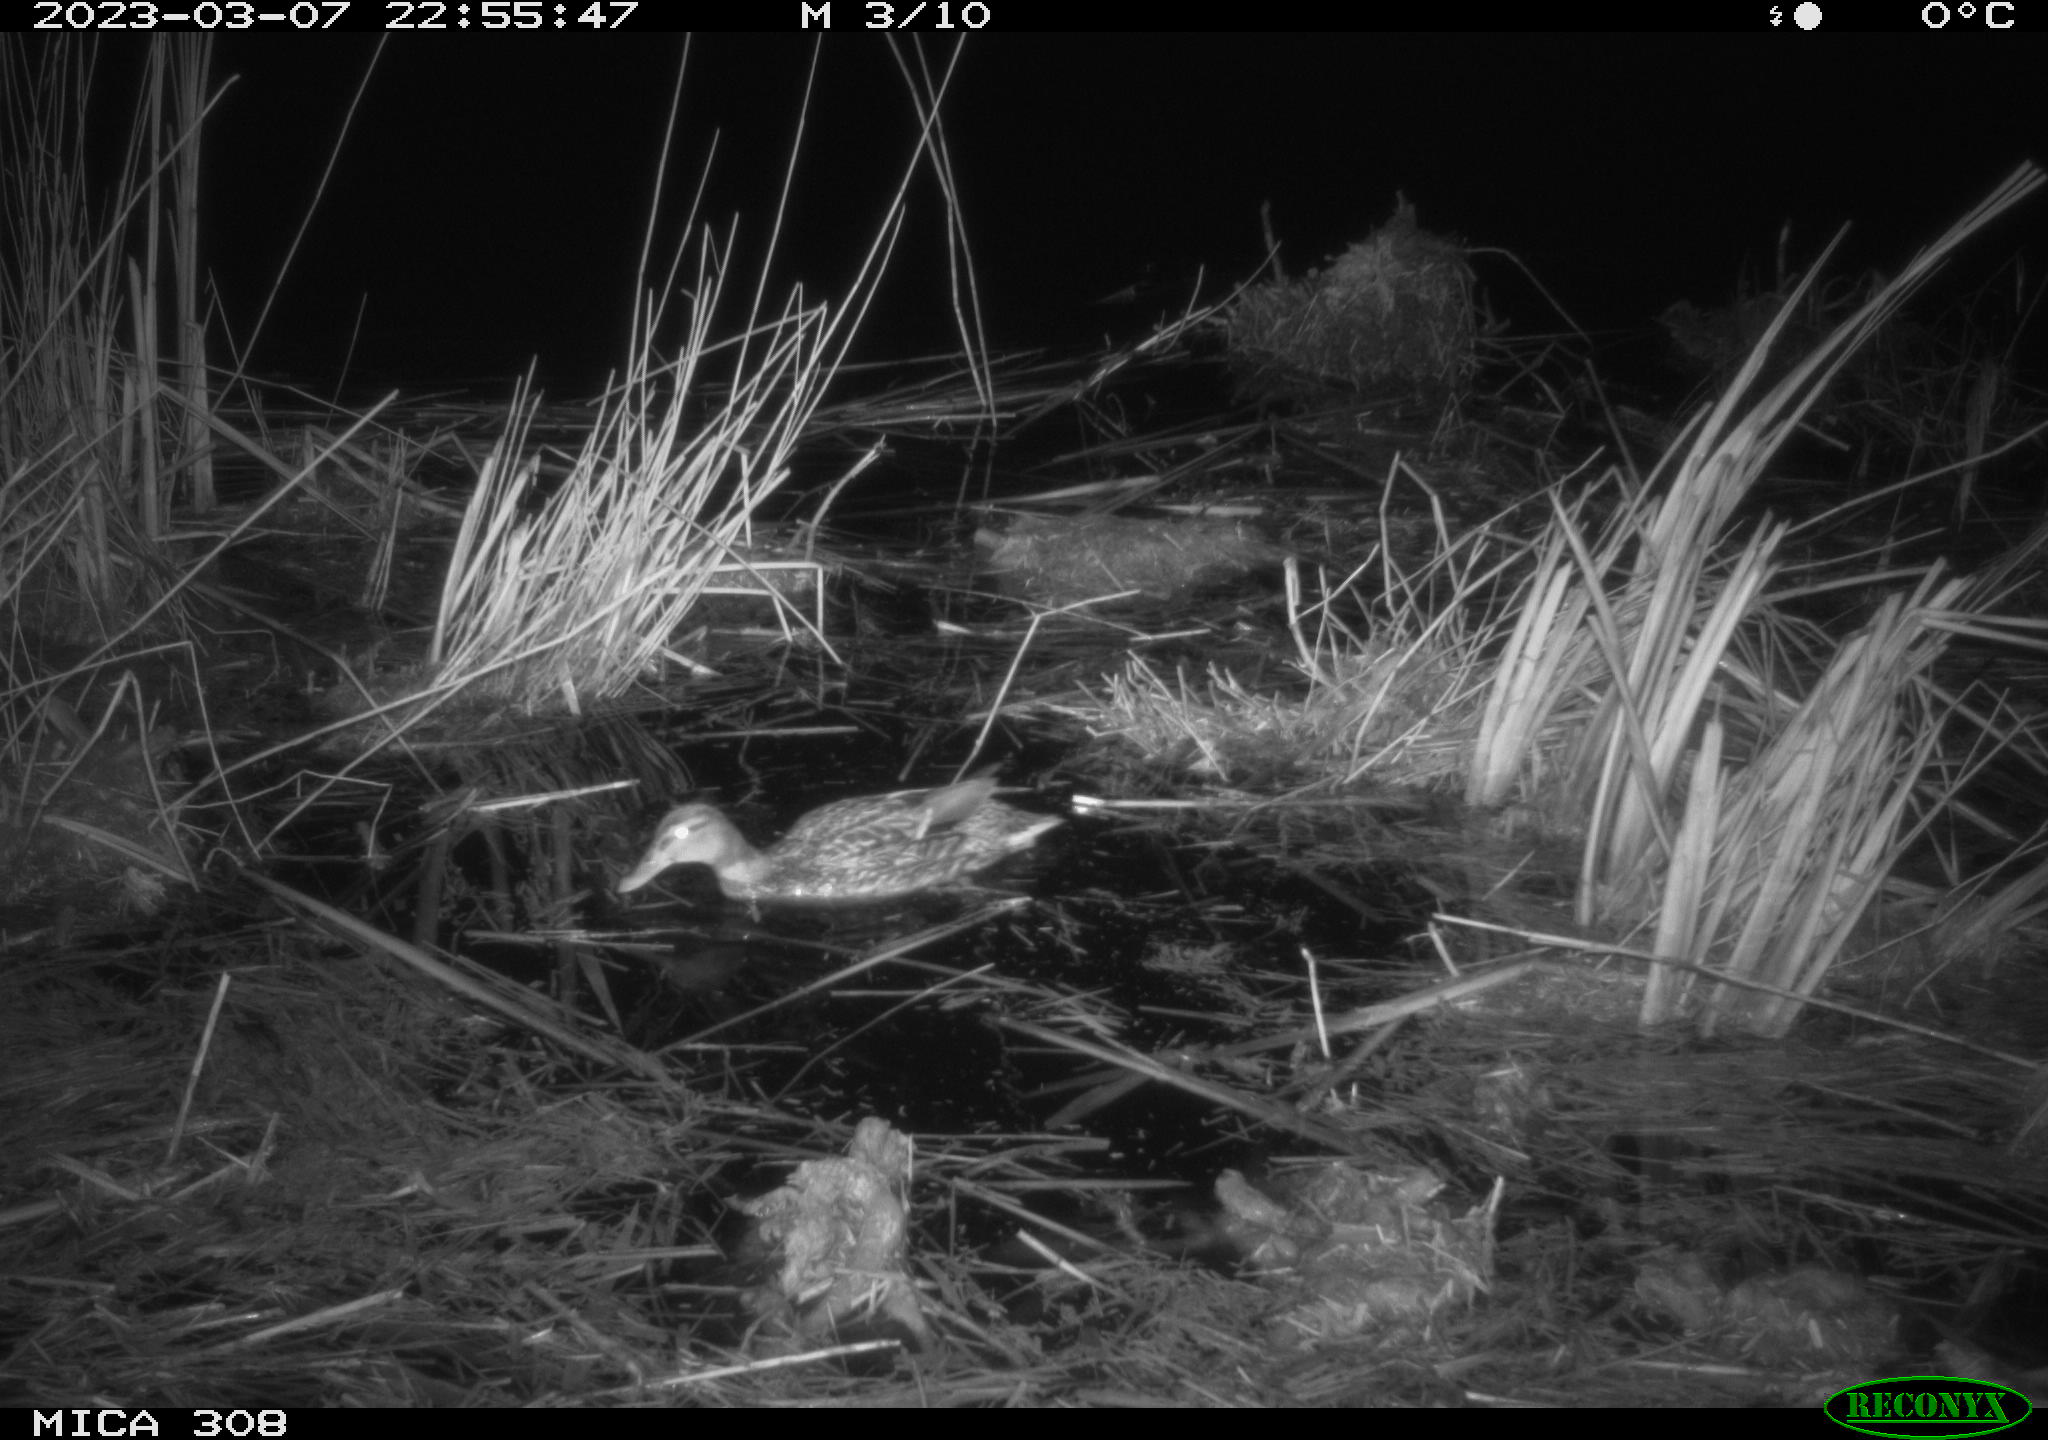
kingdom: Animalia
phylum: Chordata
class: Aves
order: Anseriformes
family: Anatidae
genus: Anas
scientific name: Anas
